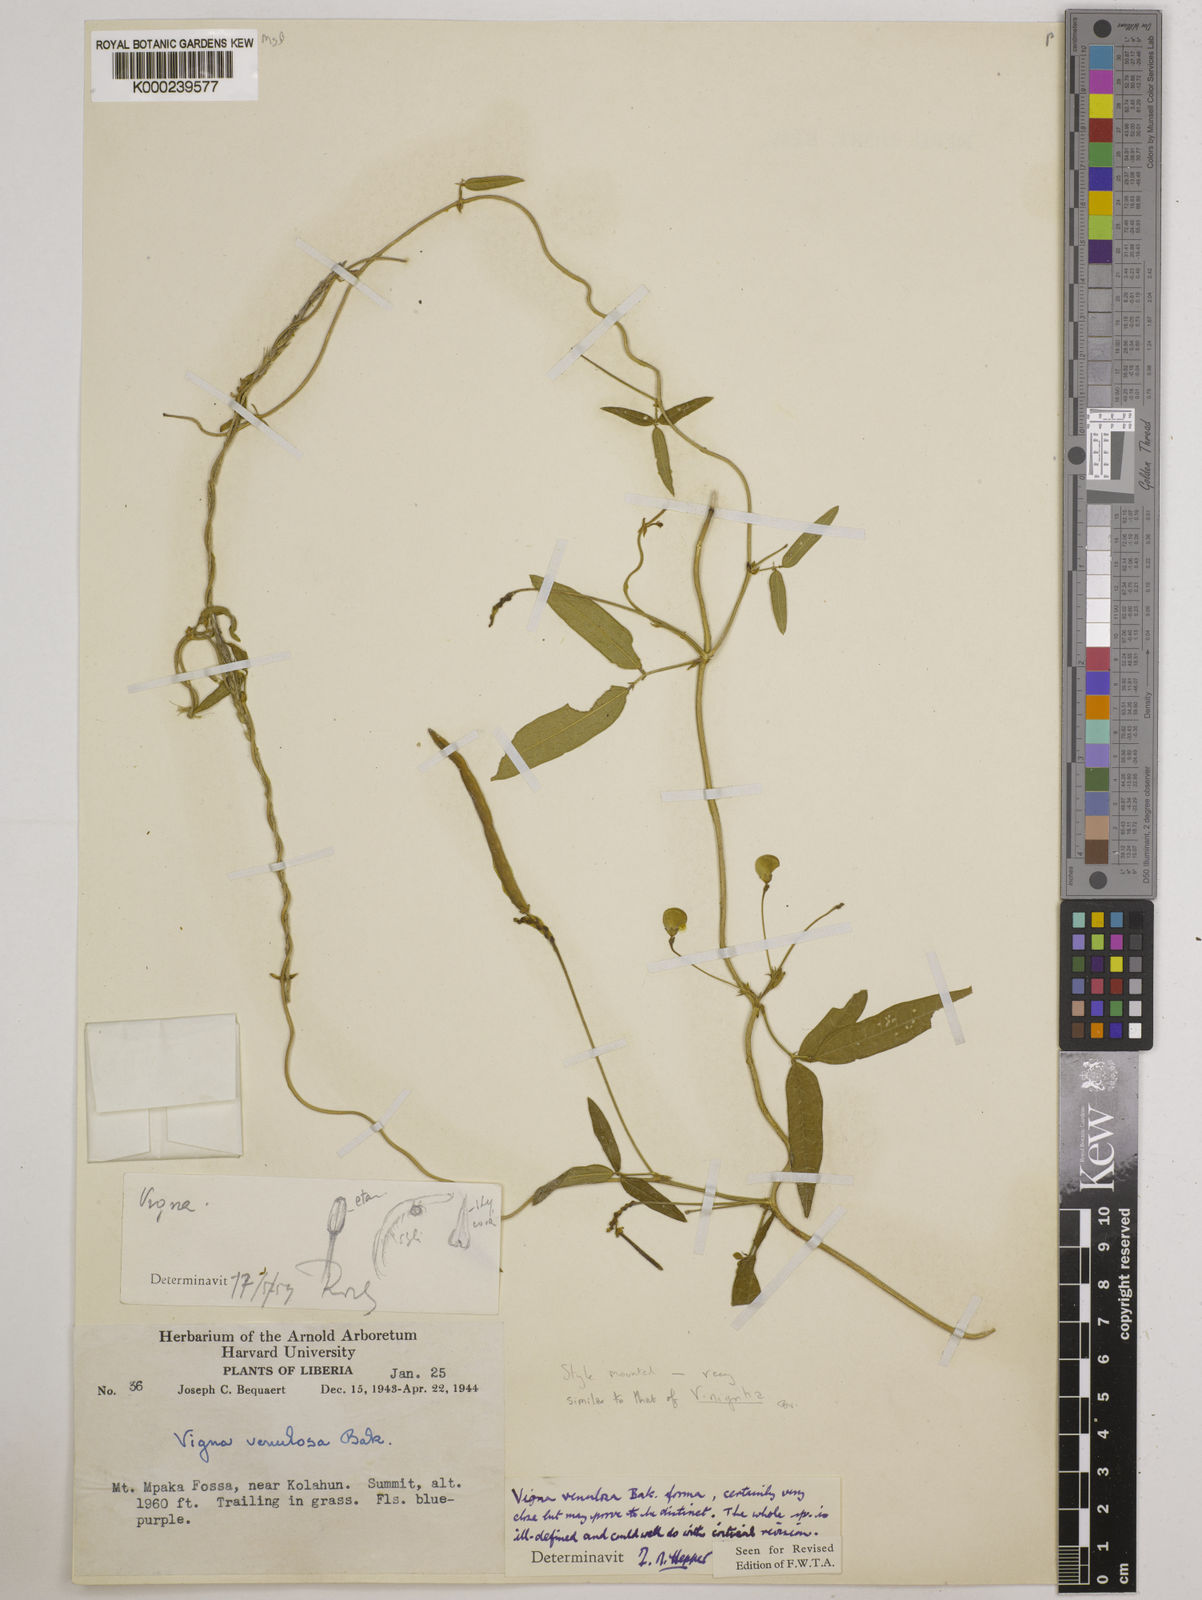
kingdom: Plantae
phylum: Tracheophyta
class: Magnoliopsida
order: Fabales
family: Fabaceae
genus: Vigna
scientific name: Vigna venulosa
